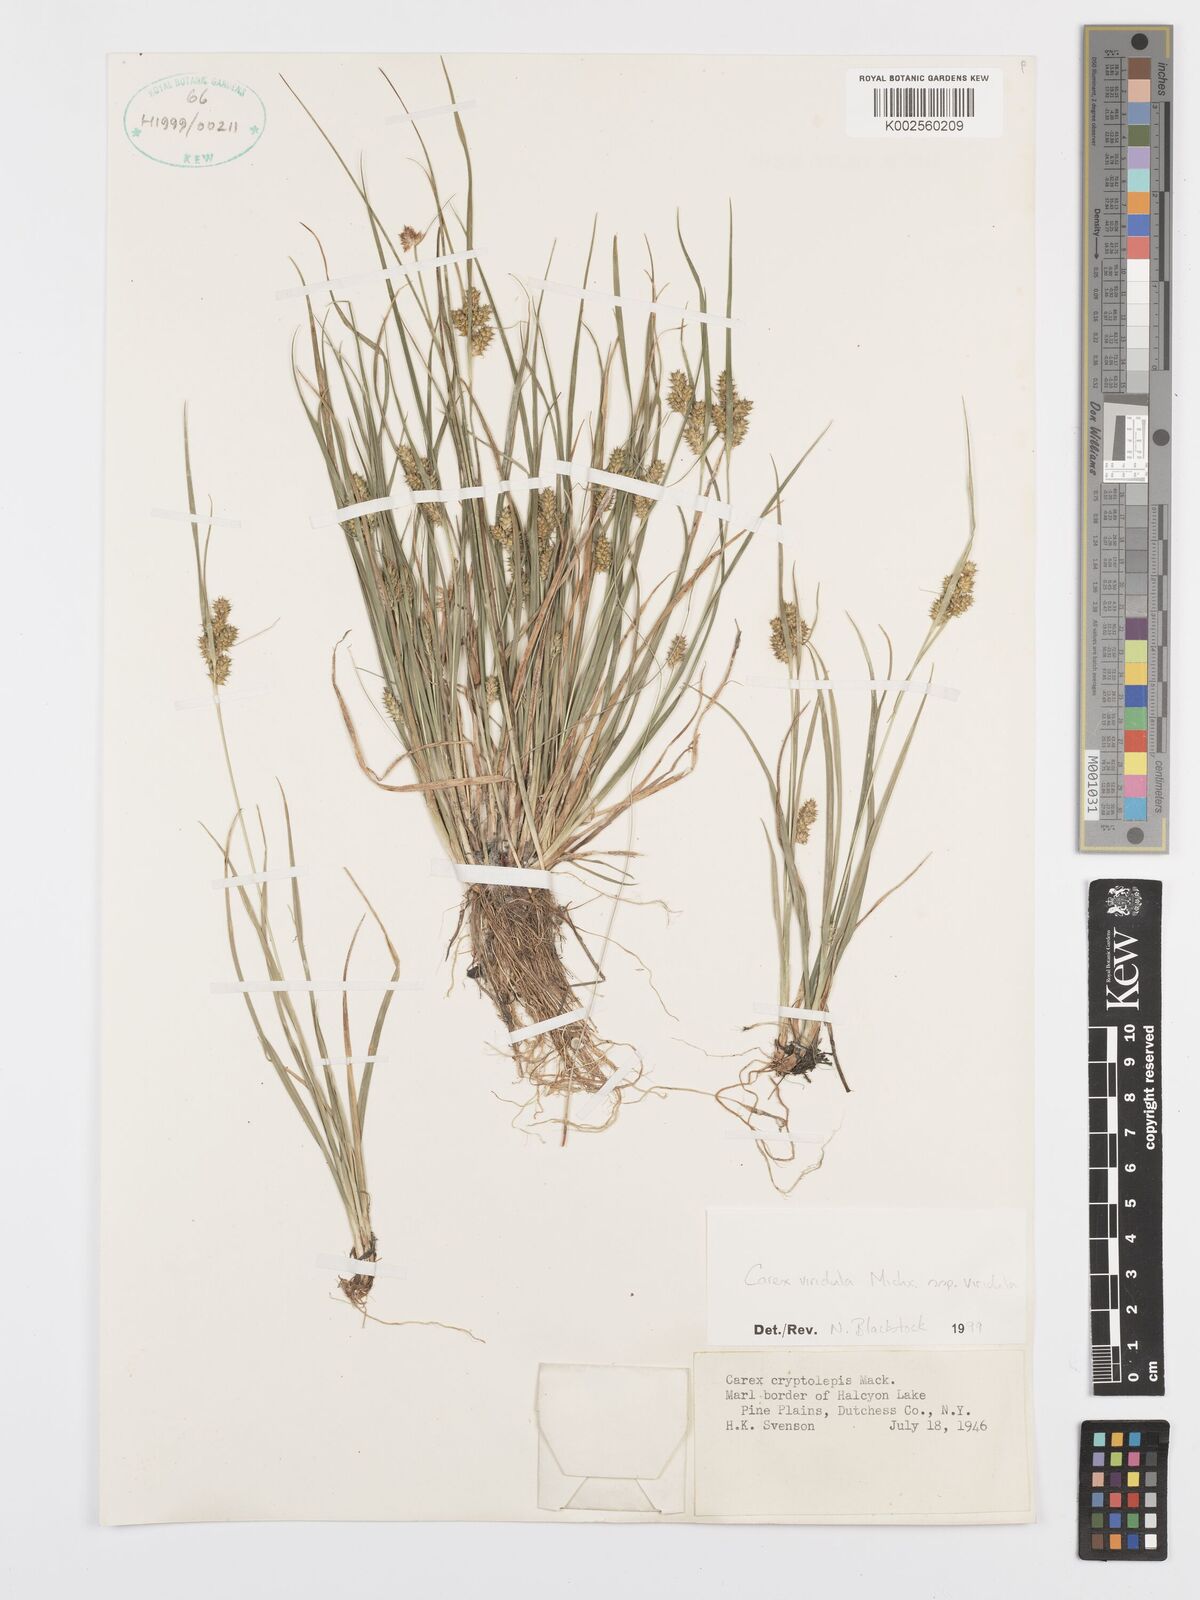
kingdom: Plantae
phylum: Tracheophyta
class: Liliopsida
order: Poales
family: Cyperaceae
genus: Carex
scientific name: Carex oederi
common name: Common & small-fruited yellow-sedge
